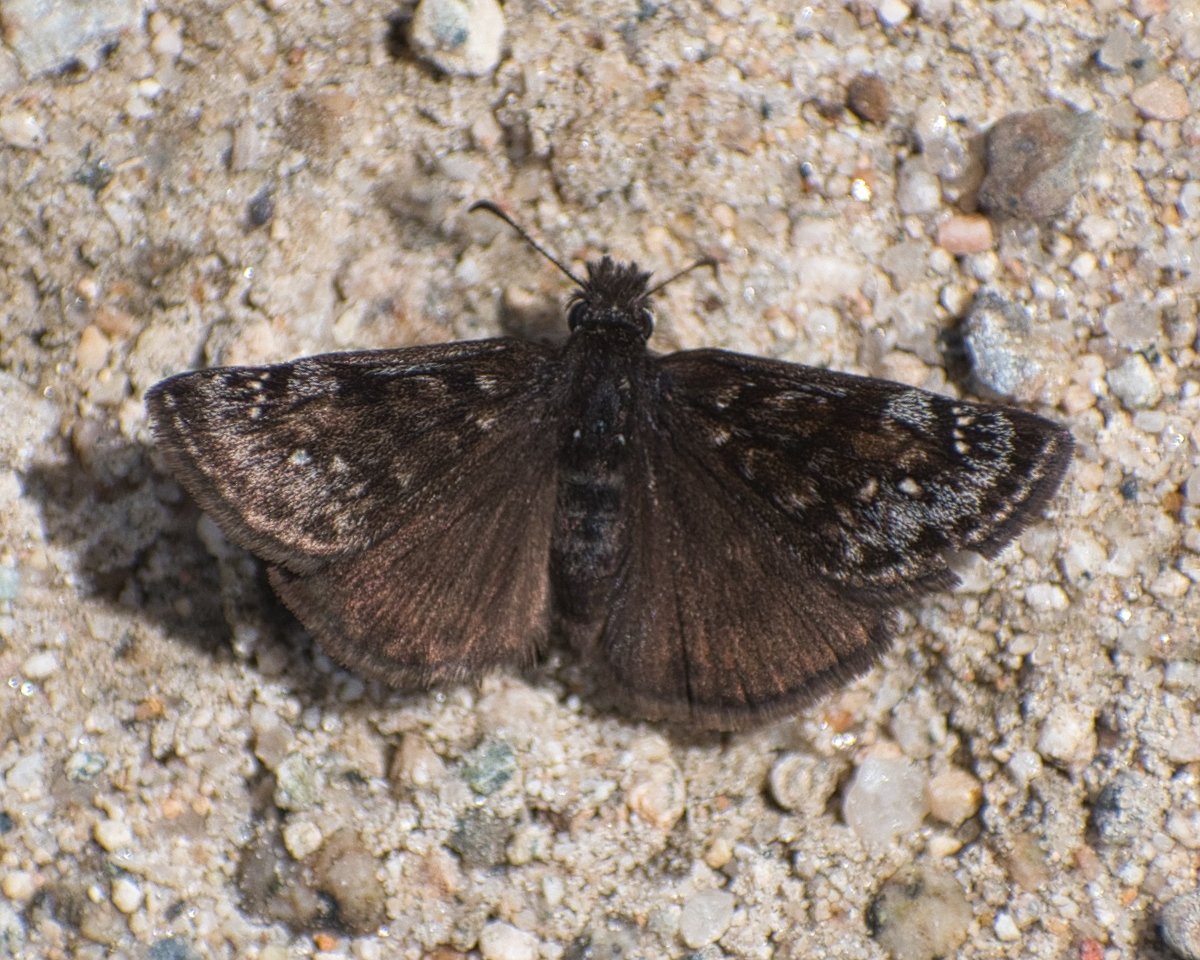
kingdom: Animalia
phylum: Arthropoda
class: Insecta
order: Lepidoptera
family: Hesperiidae
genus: Erynnis
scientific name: Erynnis pacuvius
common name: Pacuvius Duskywing
